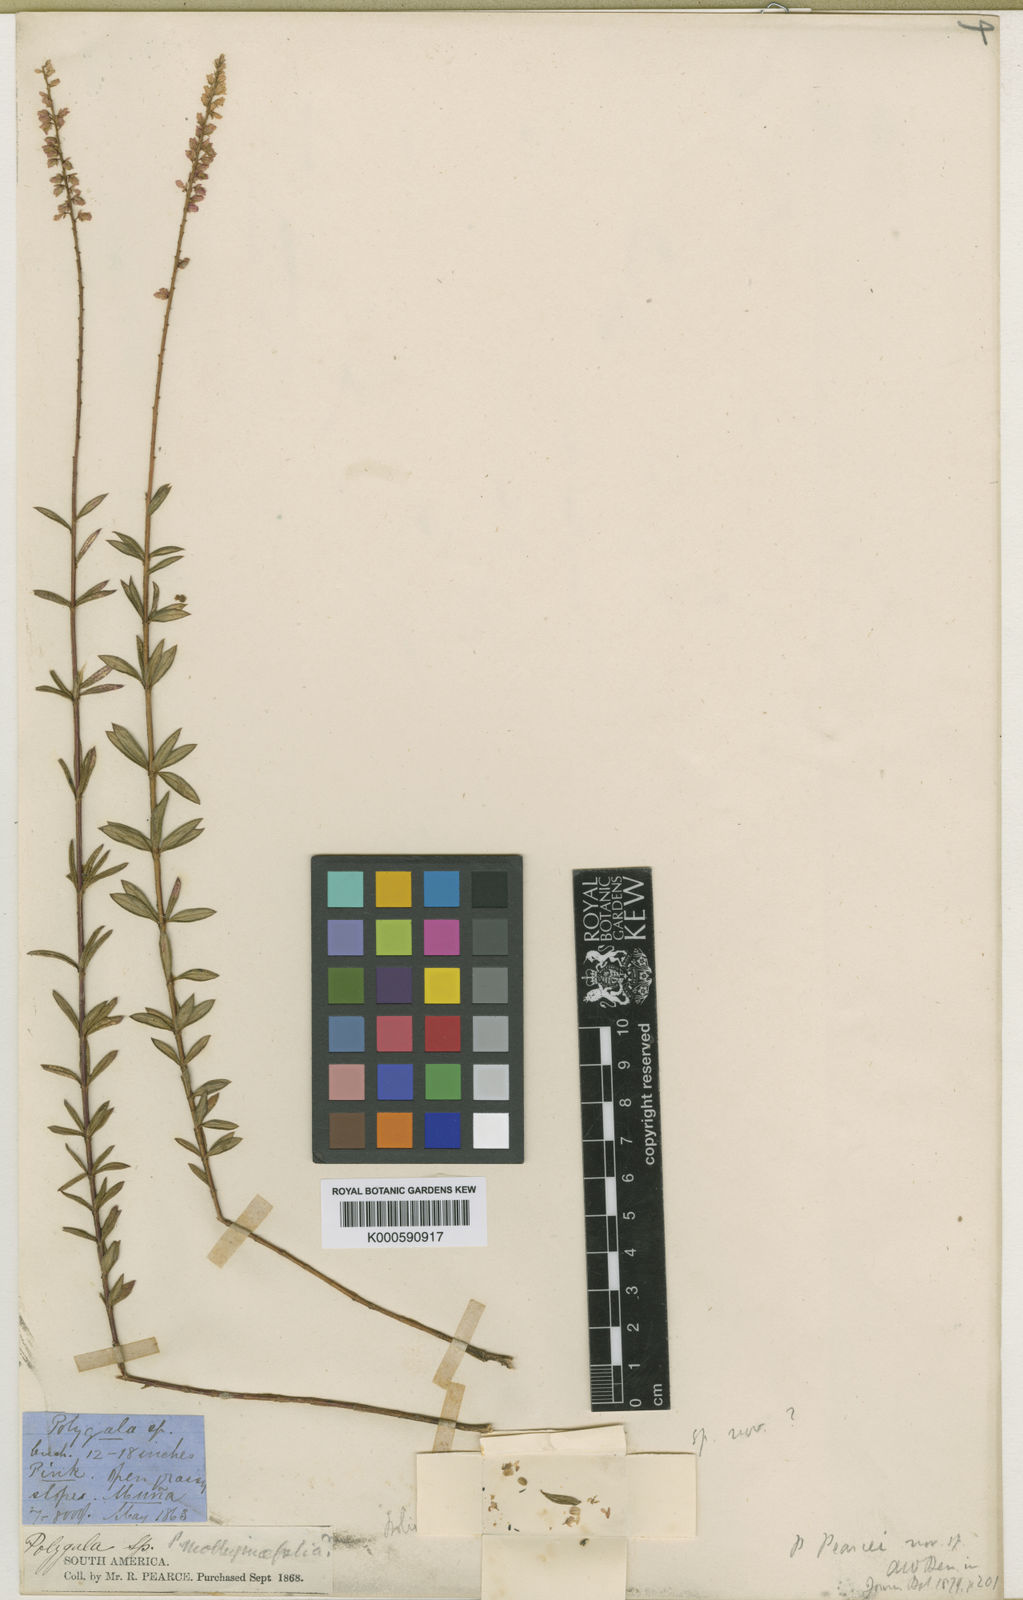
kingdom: Plantae
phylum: Tracheophyta
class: Magnoliopsida
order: Fabales
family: Polygalaceae
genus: Polygala
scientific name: Polygala pearcei
